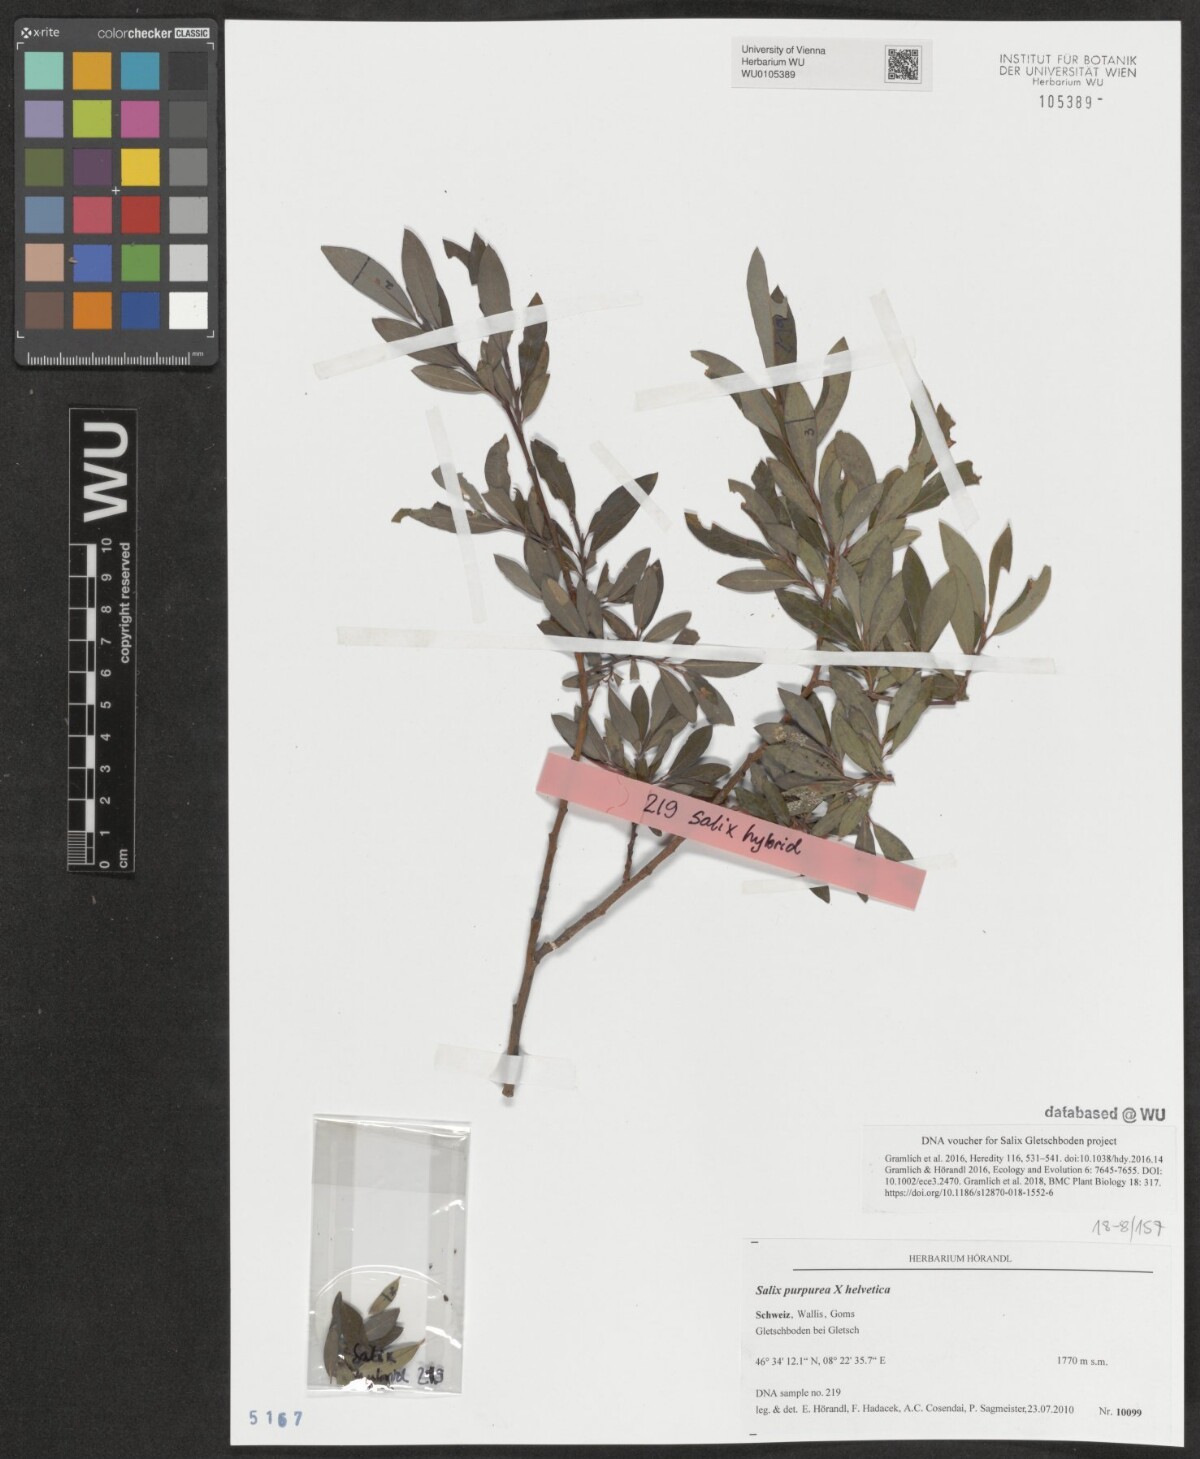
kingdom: Plantae
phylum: Tracheophyta
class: Magnoliopsida
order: Malpighiales
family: Salicaceae
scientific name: Salicaceae
